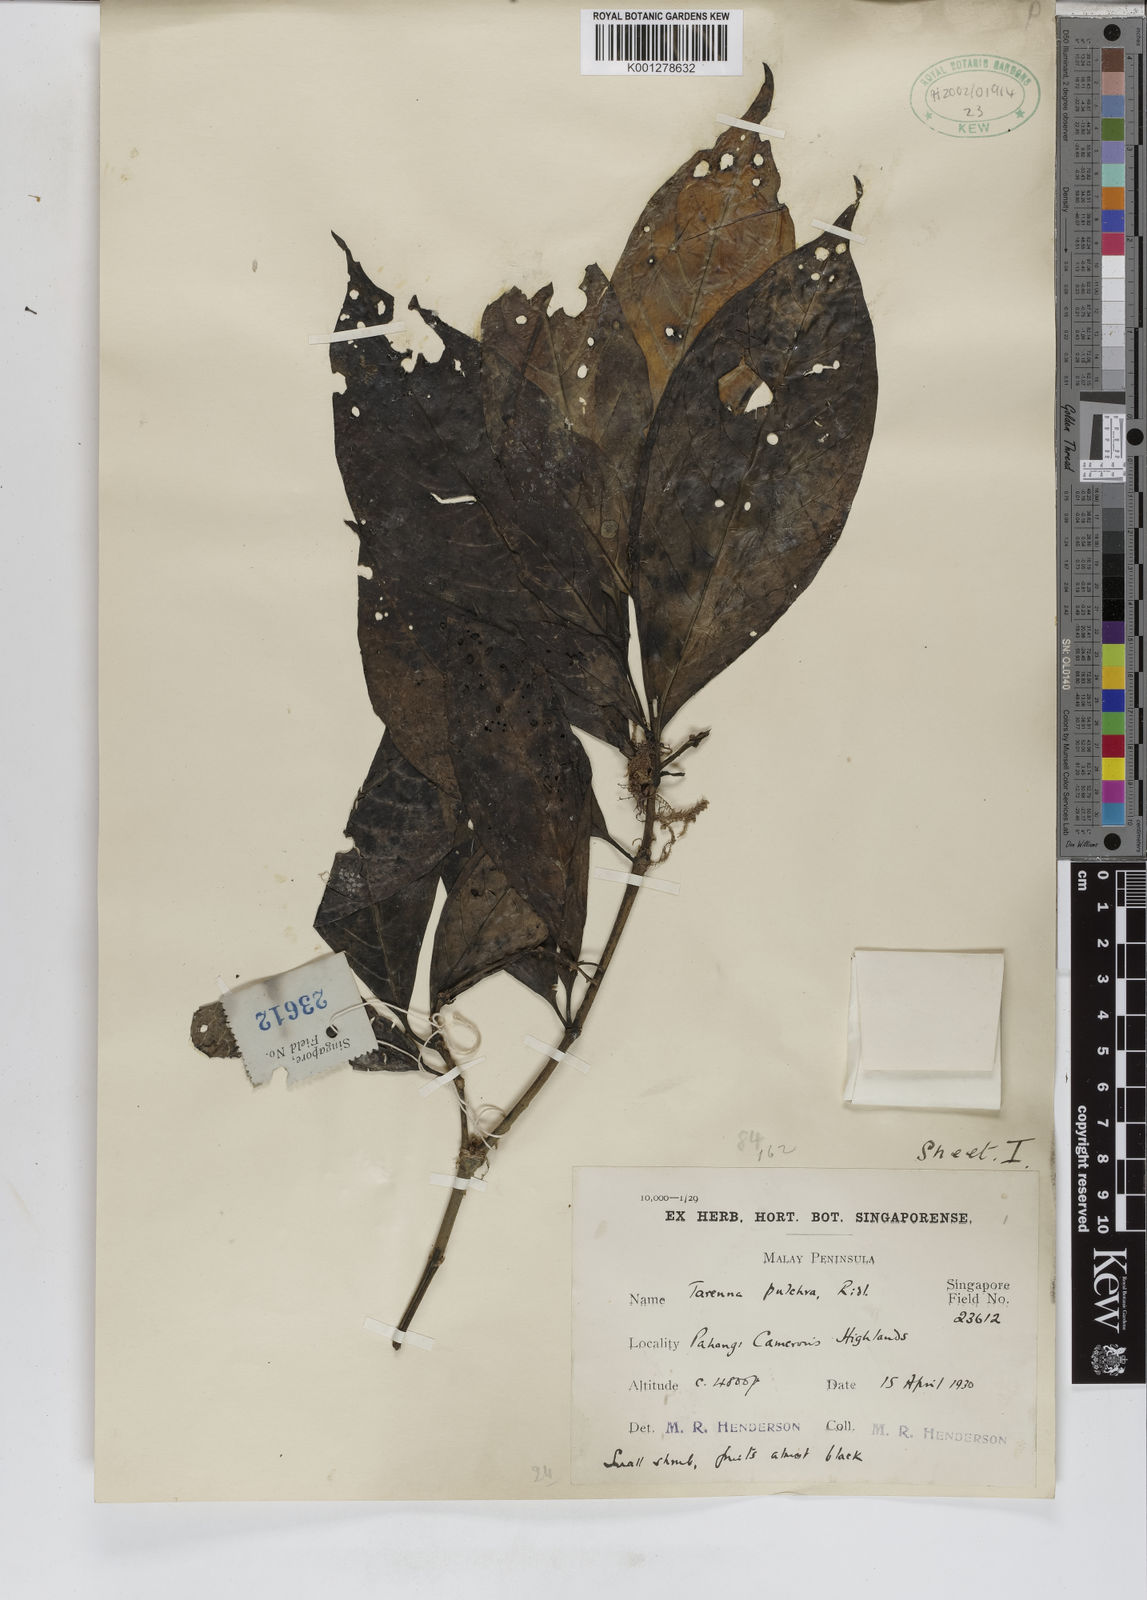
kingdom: Plantae
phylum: Tracheophyta
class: Magnoliopsida
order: Gentianales
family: Rubiaceae
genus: Tarenna
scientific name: Tarenna pulchra
